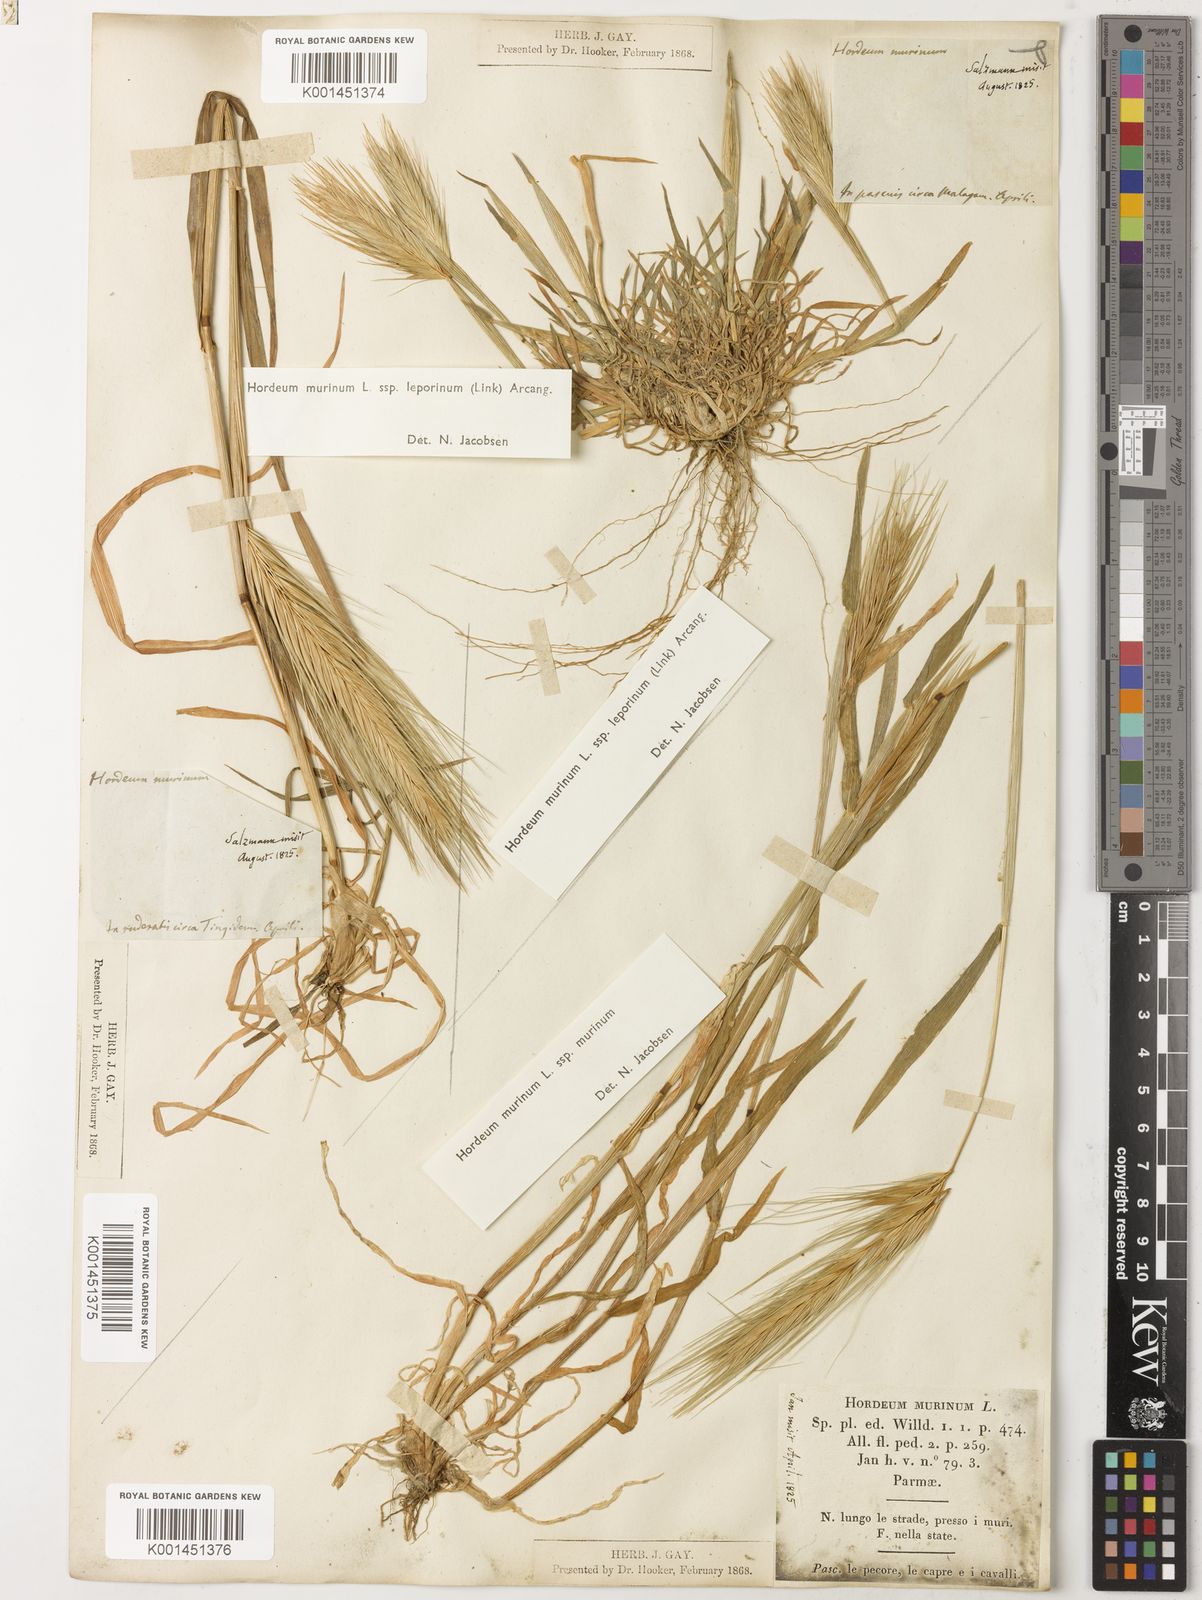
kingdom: Plantae
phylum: Tracheophyta
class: Liliopsida
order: Poales
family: Poaceae
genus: Hordeum
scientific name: Hordeum murinum
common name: Wall barley
